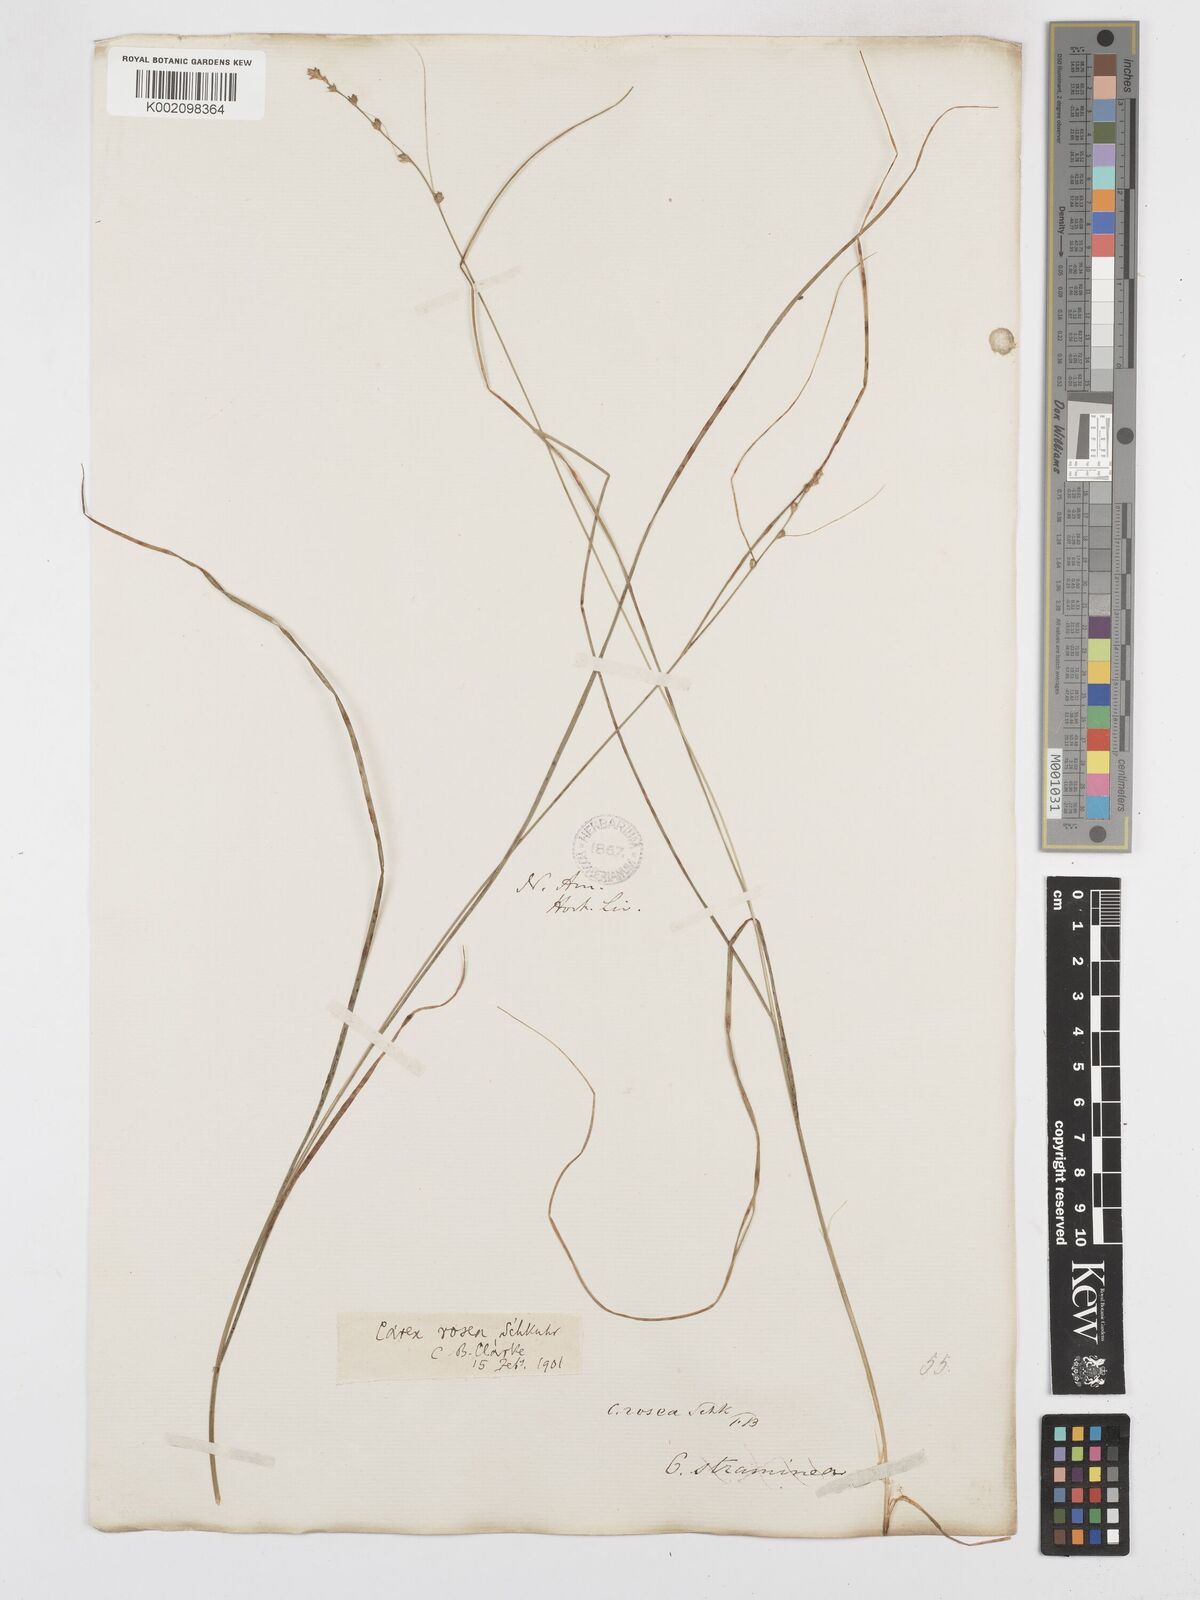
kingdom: Plantae
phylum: Tracheophyta
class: Liliopsida
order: Poales
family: Cyperaceae
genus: Carex
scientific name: Carex rosea
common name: Curly-styled wood sedge
